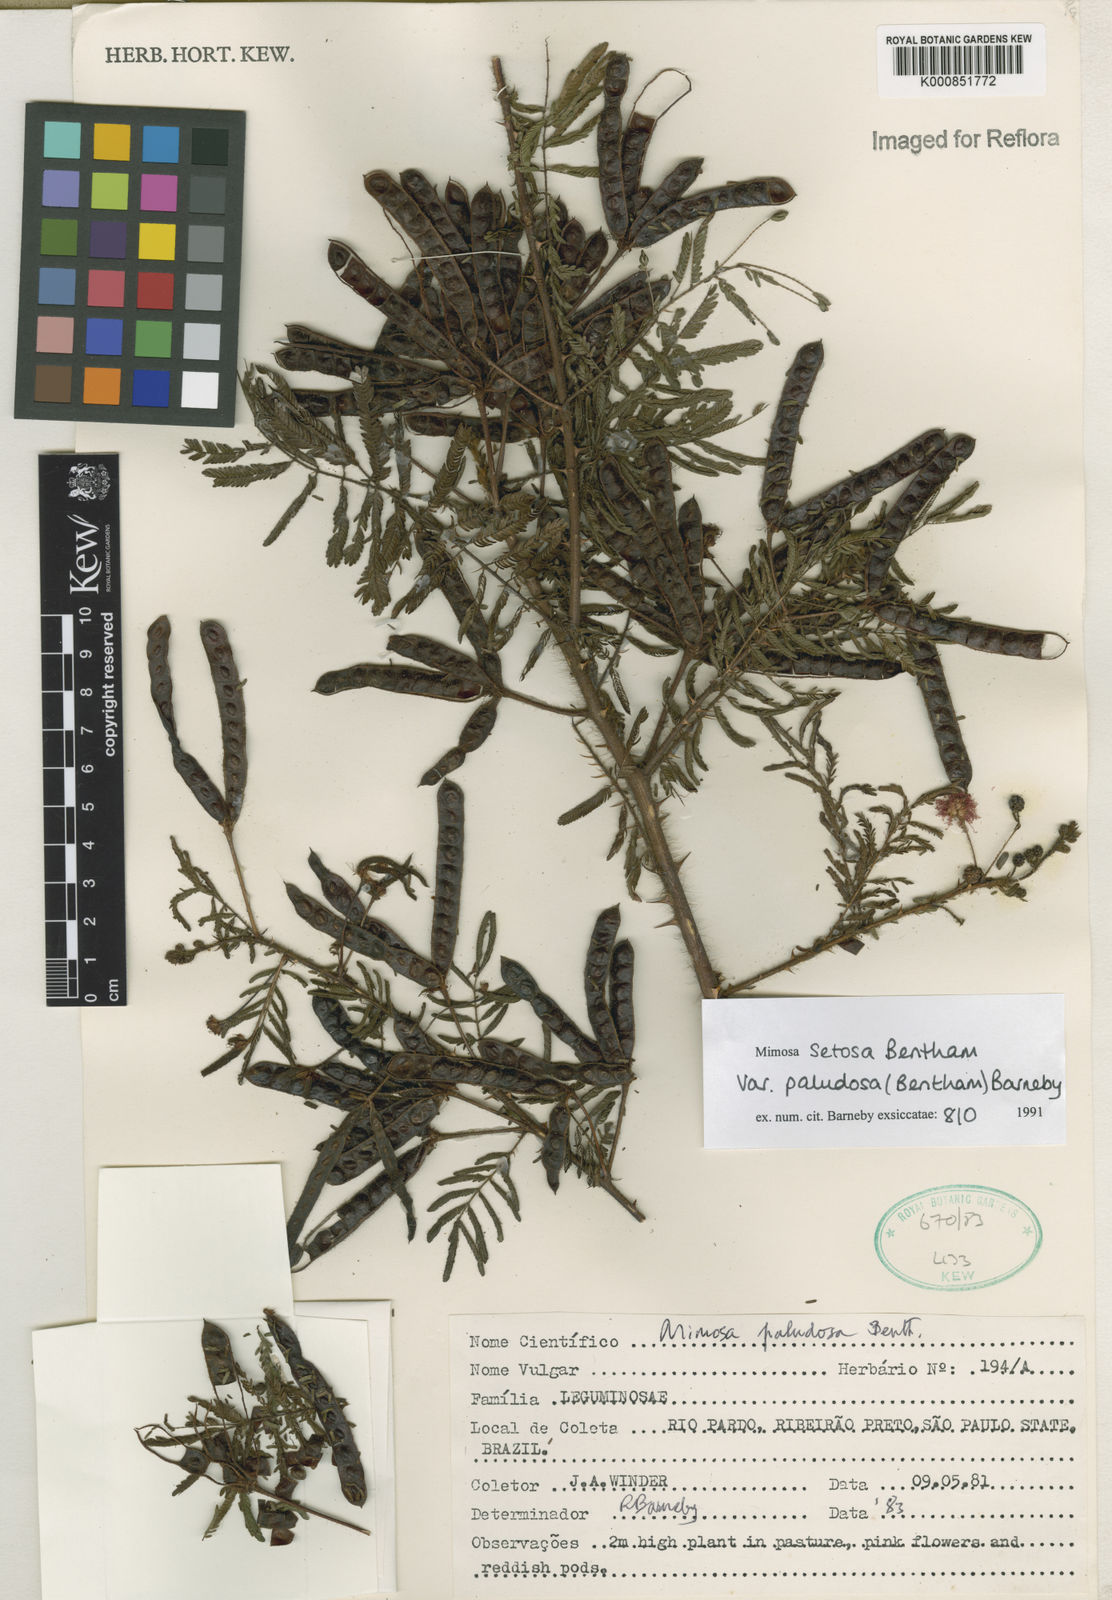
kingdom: Plantae
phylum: Tracheophyta
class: Magnoliopsida
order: Fabales
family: Fabaceae
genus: Mimosa
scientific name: Mimosa paludosa
